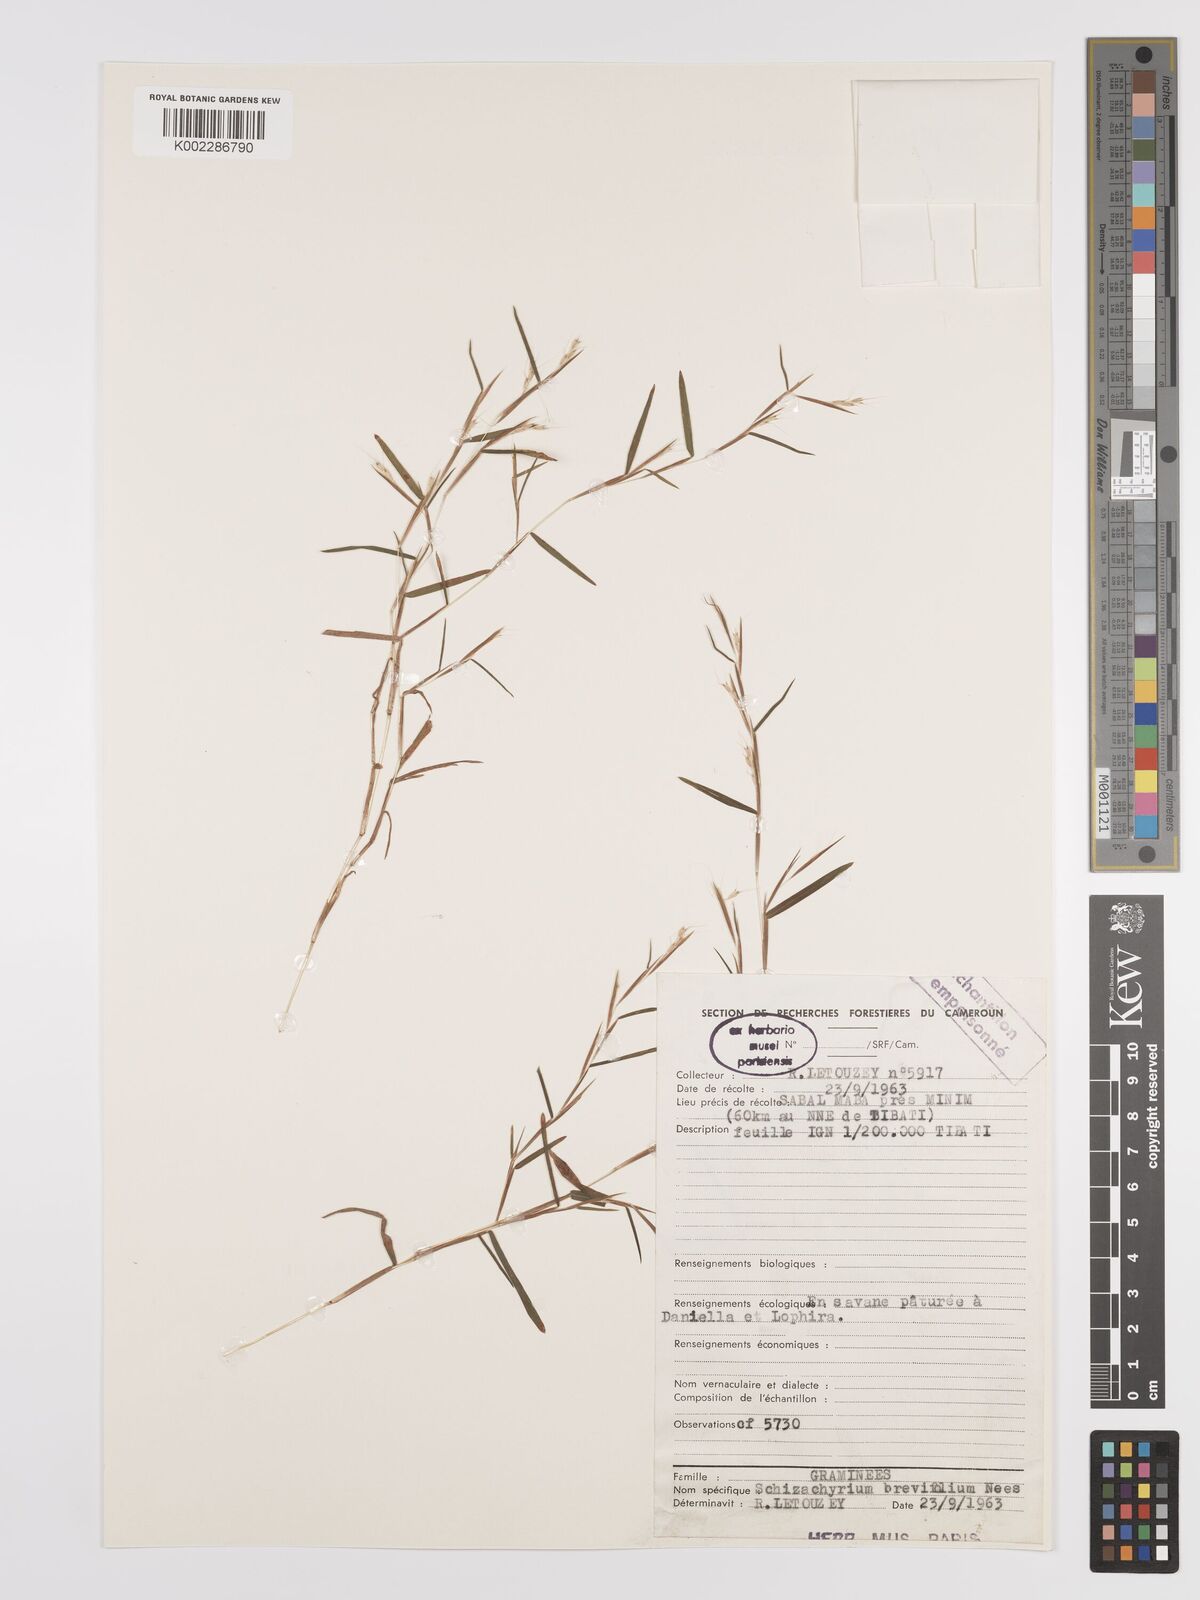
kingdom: Plantae
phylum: Tracheophyta
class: Liliopsida
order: Poales
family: Poaceae
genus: Schizachyrium
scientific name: Schizachyrium brevifolium
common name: Serillo dulce
